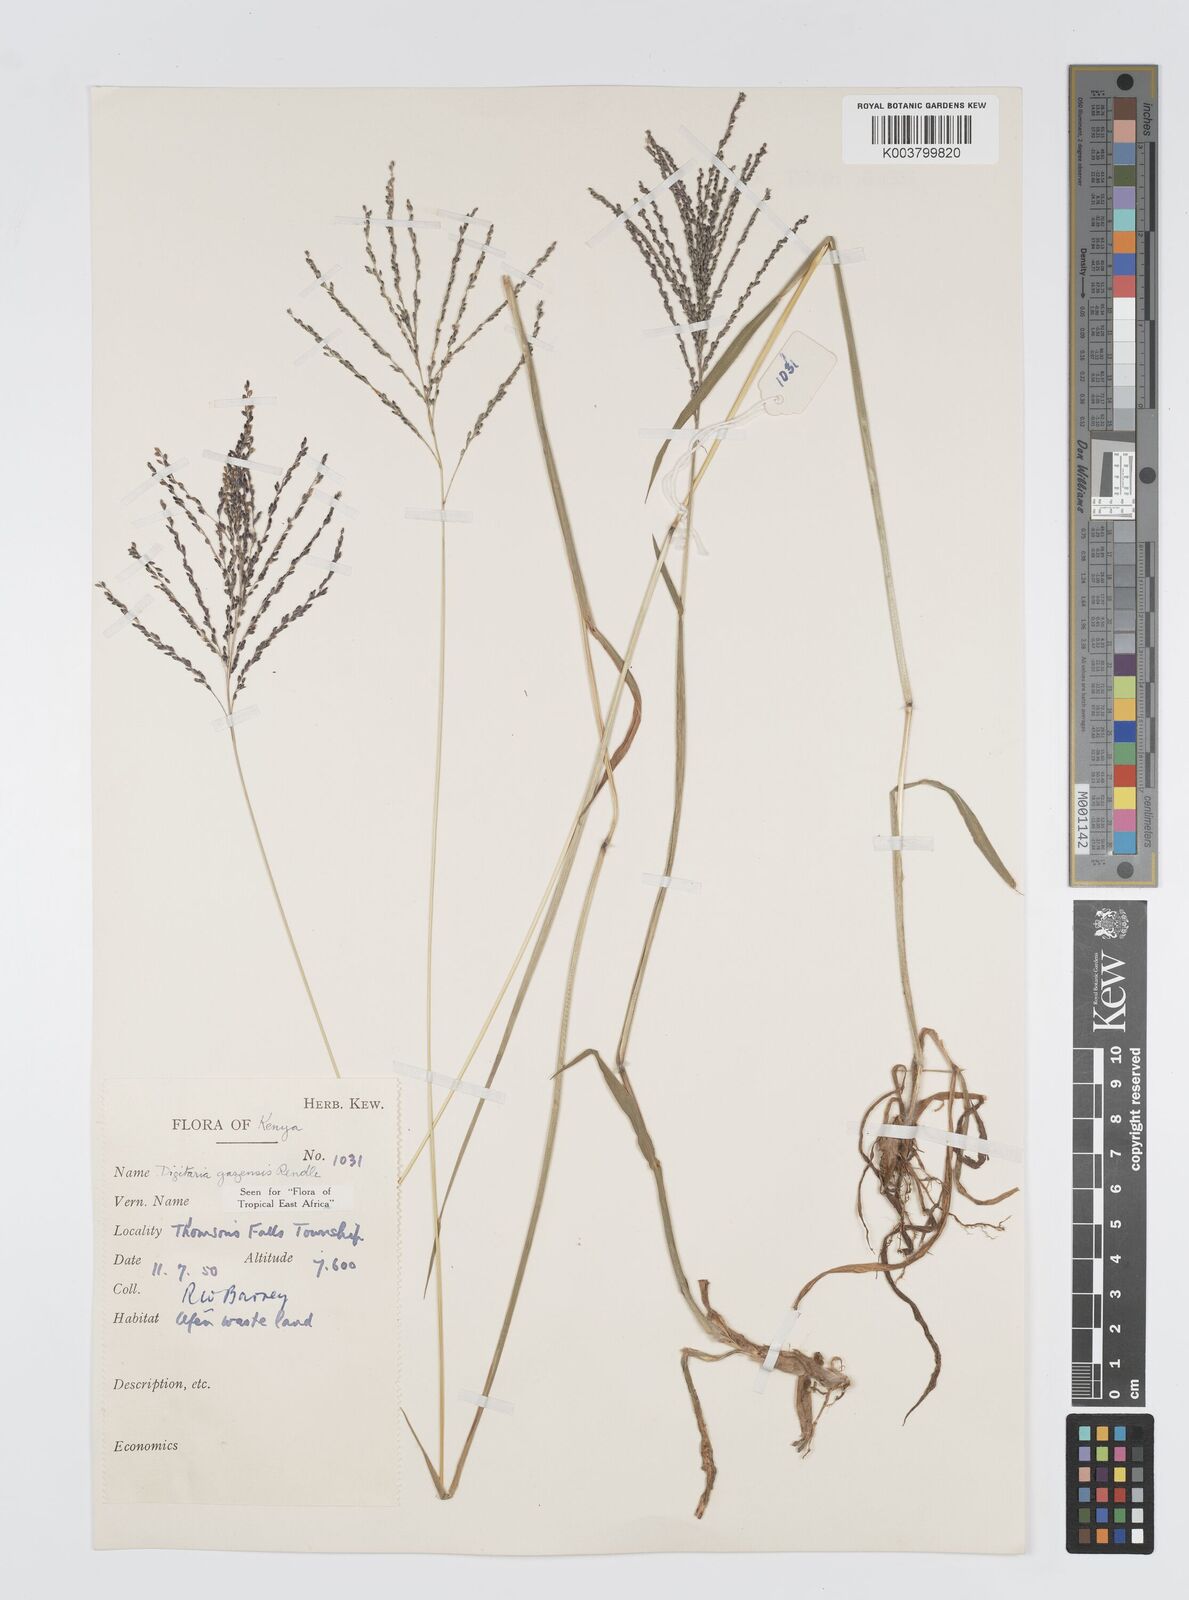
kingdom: Plantae
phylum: Tracheophyta
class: Liliopsida
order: Poales
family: Poaceae
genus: Digitaria
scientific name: Digitaria gazensis
